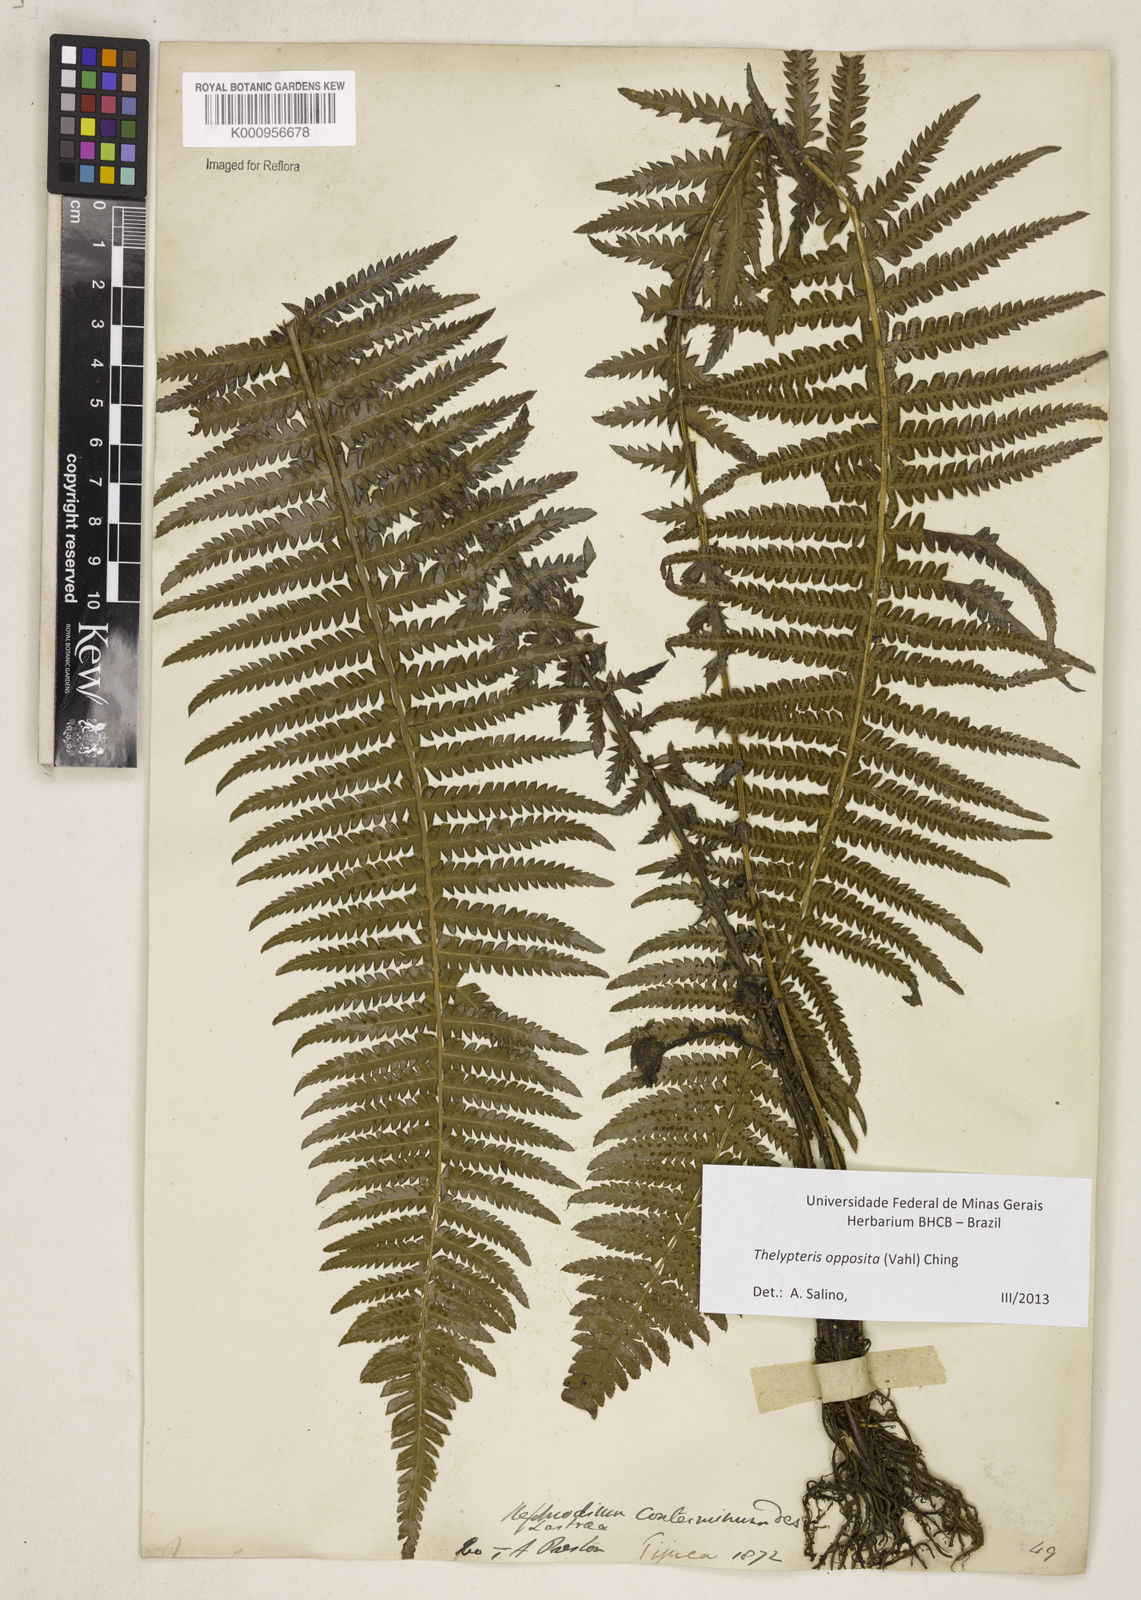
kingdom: Plantae
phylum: Tracheophyta
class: Polypodiopsida
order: Polypodiales
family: Thelypteridaceae
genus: Amauropelta
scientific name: Amauropelta opposita
